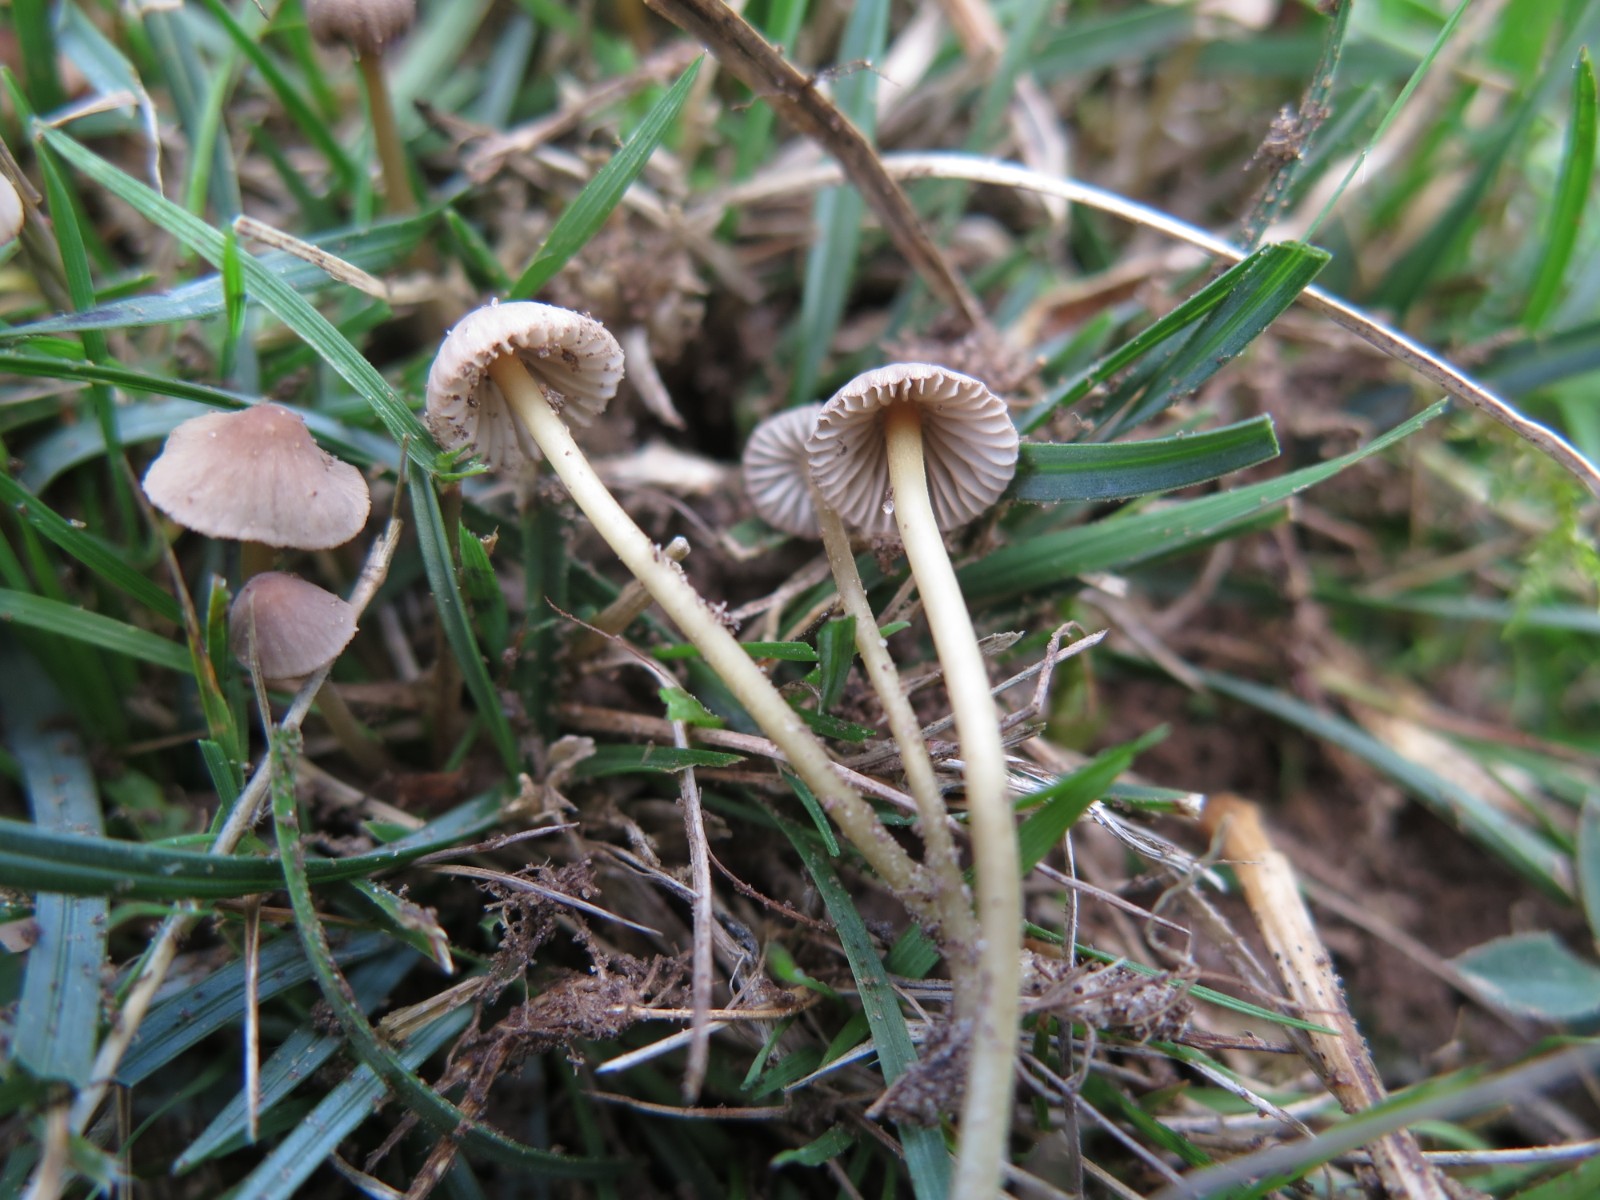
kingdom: Fungi
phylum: Basidiomycota
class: Agaricomycetes
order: Agaricales
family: Mycenaceae
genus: Mycena
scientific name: Mycena olivaceomarginata
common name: brunægget huesvamp
